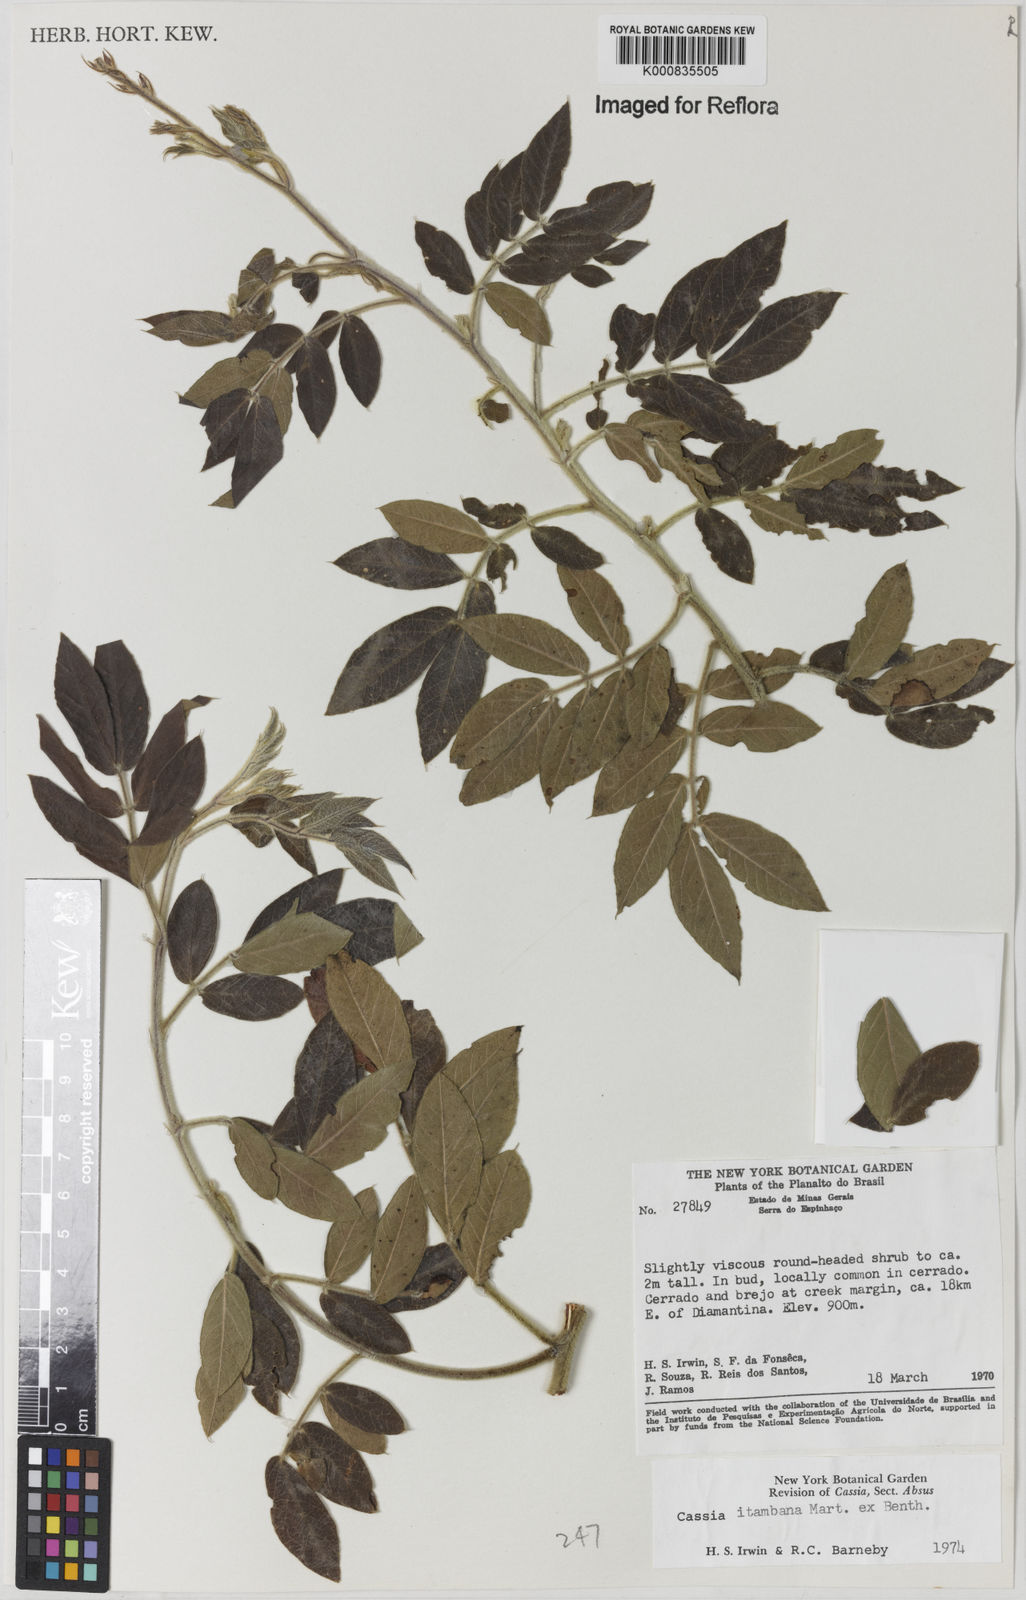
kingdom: Plantae
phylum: Tracheophyta
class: Magnoliopsida
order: Fabales
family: Fabaceae
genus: Chamaecrista
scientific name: Chamaecrista itambana
